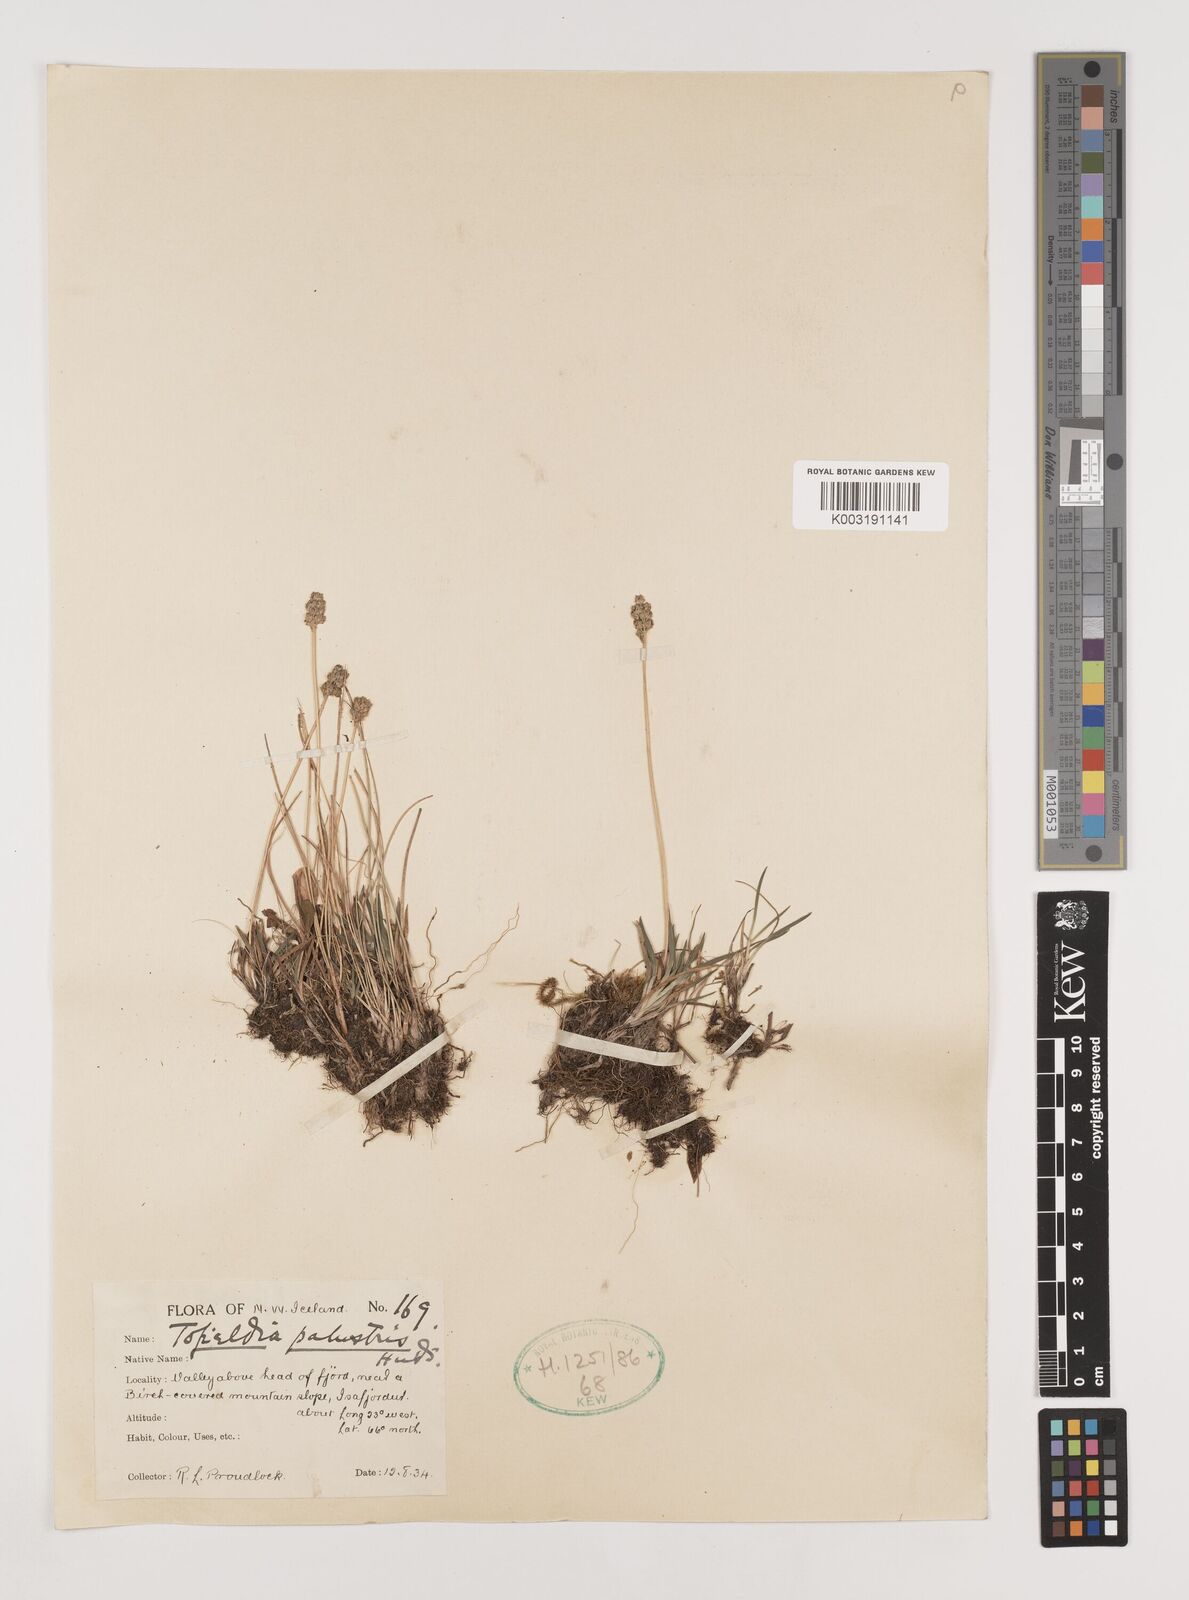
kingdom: Plantae
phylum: Tracheophyta
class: Liliopsida
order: Alismatales
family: Tofieldiaceae
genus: Tofieldia
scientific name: Tofieldia pusilla
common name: Scottish false asphodel
